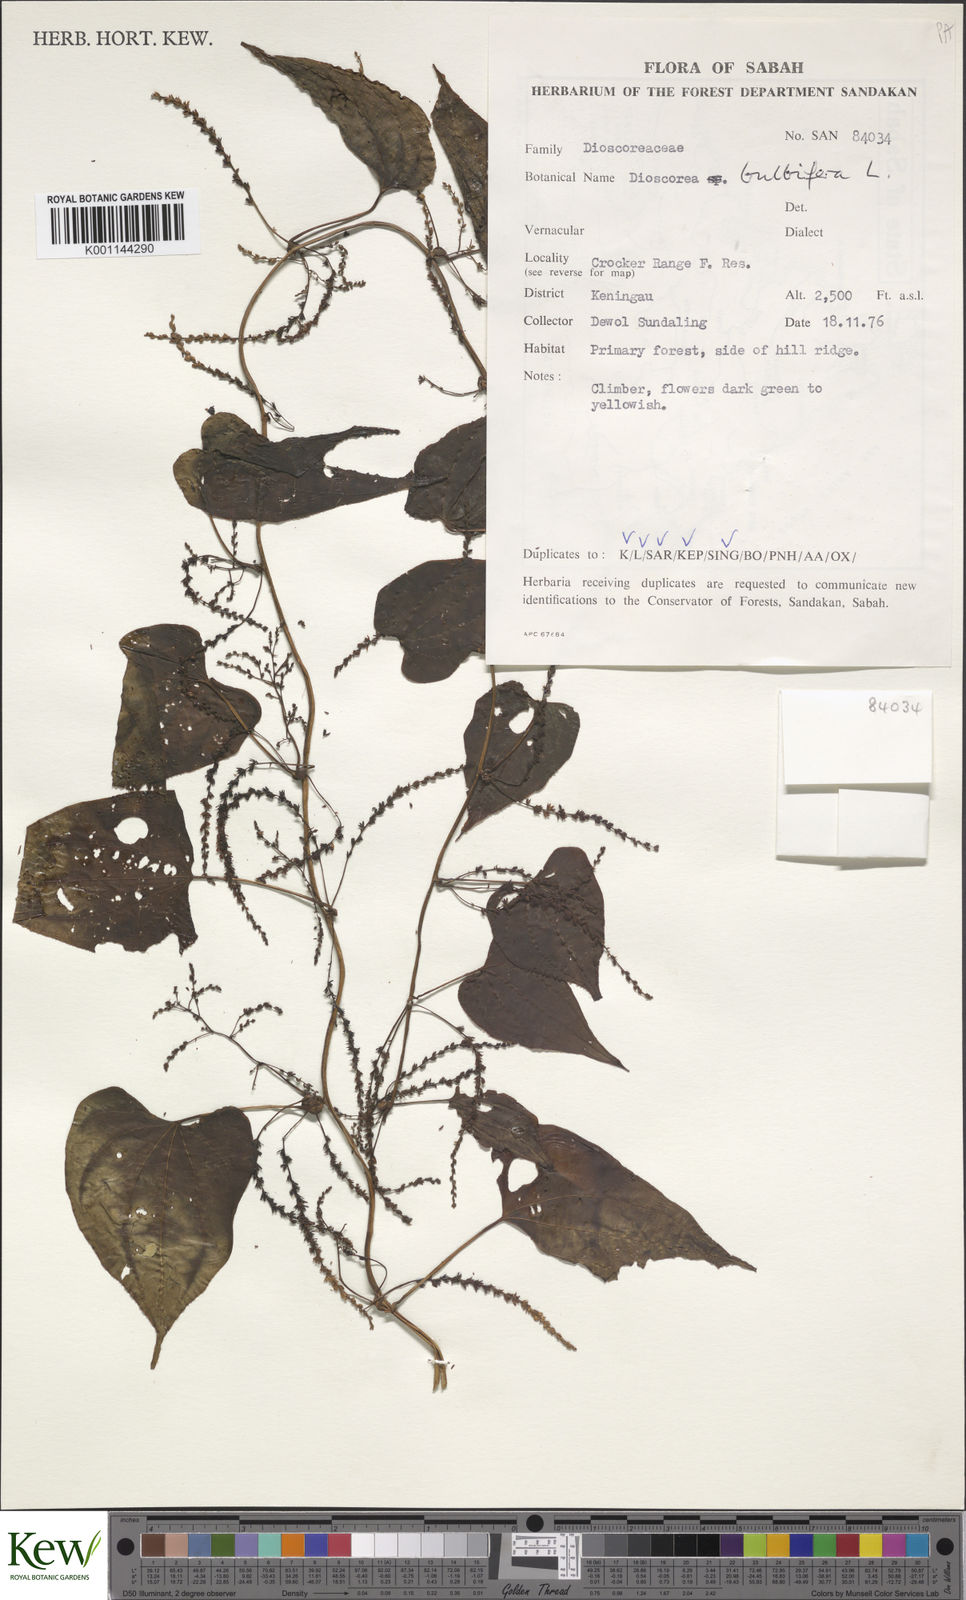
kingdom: Plantae
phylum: Tracheophyta
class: Liliopsida
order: Dioscoreales
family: Dioscoreaceae
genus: Dioscorea
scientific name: Dioscorea bulbifera
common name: Air yam
